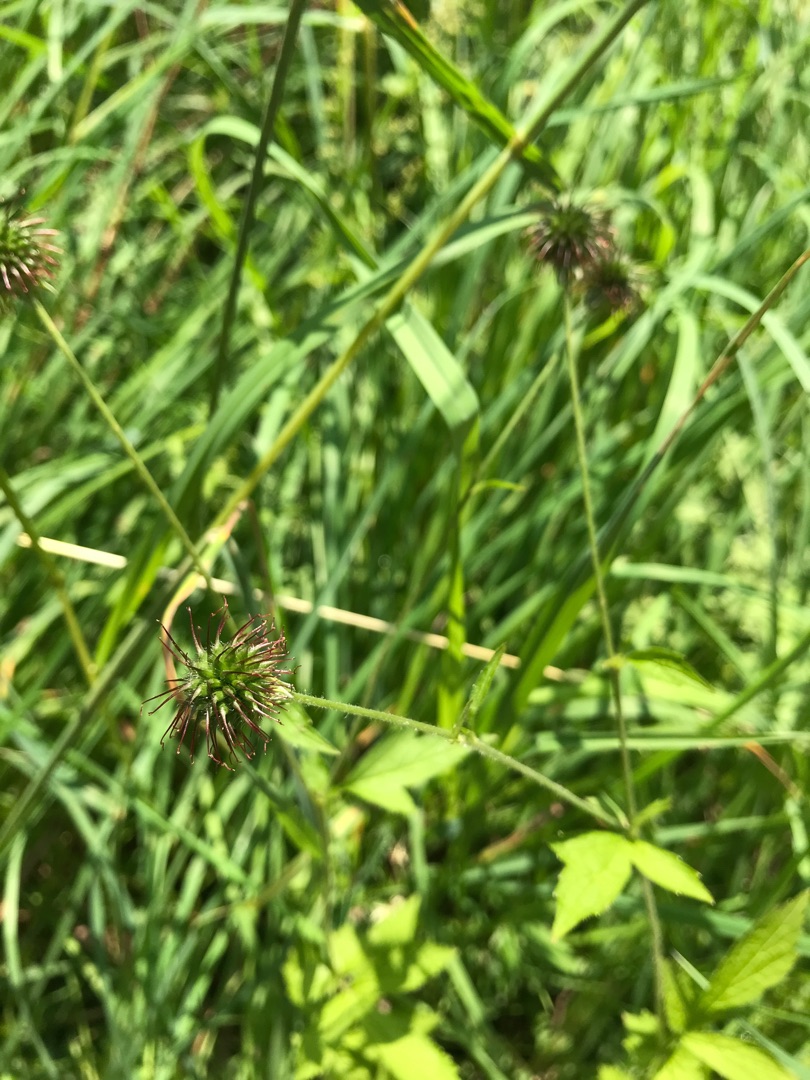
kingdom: Plantae
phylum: Tracheophyta
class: Magnoliopsida
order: Rosales
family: Rosaceae
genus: Geum
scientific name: Geum urbanum
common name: Feber-nellikerod
